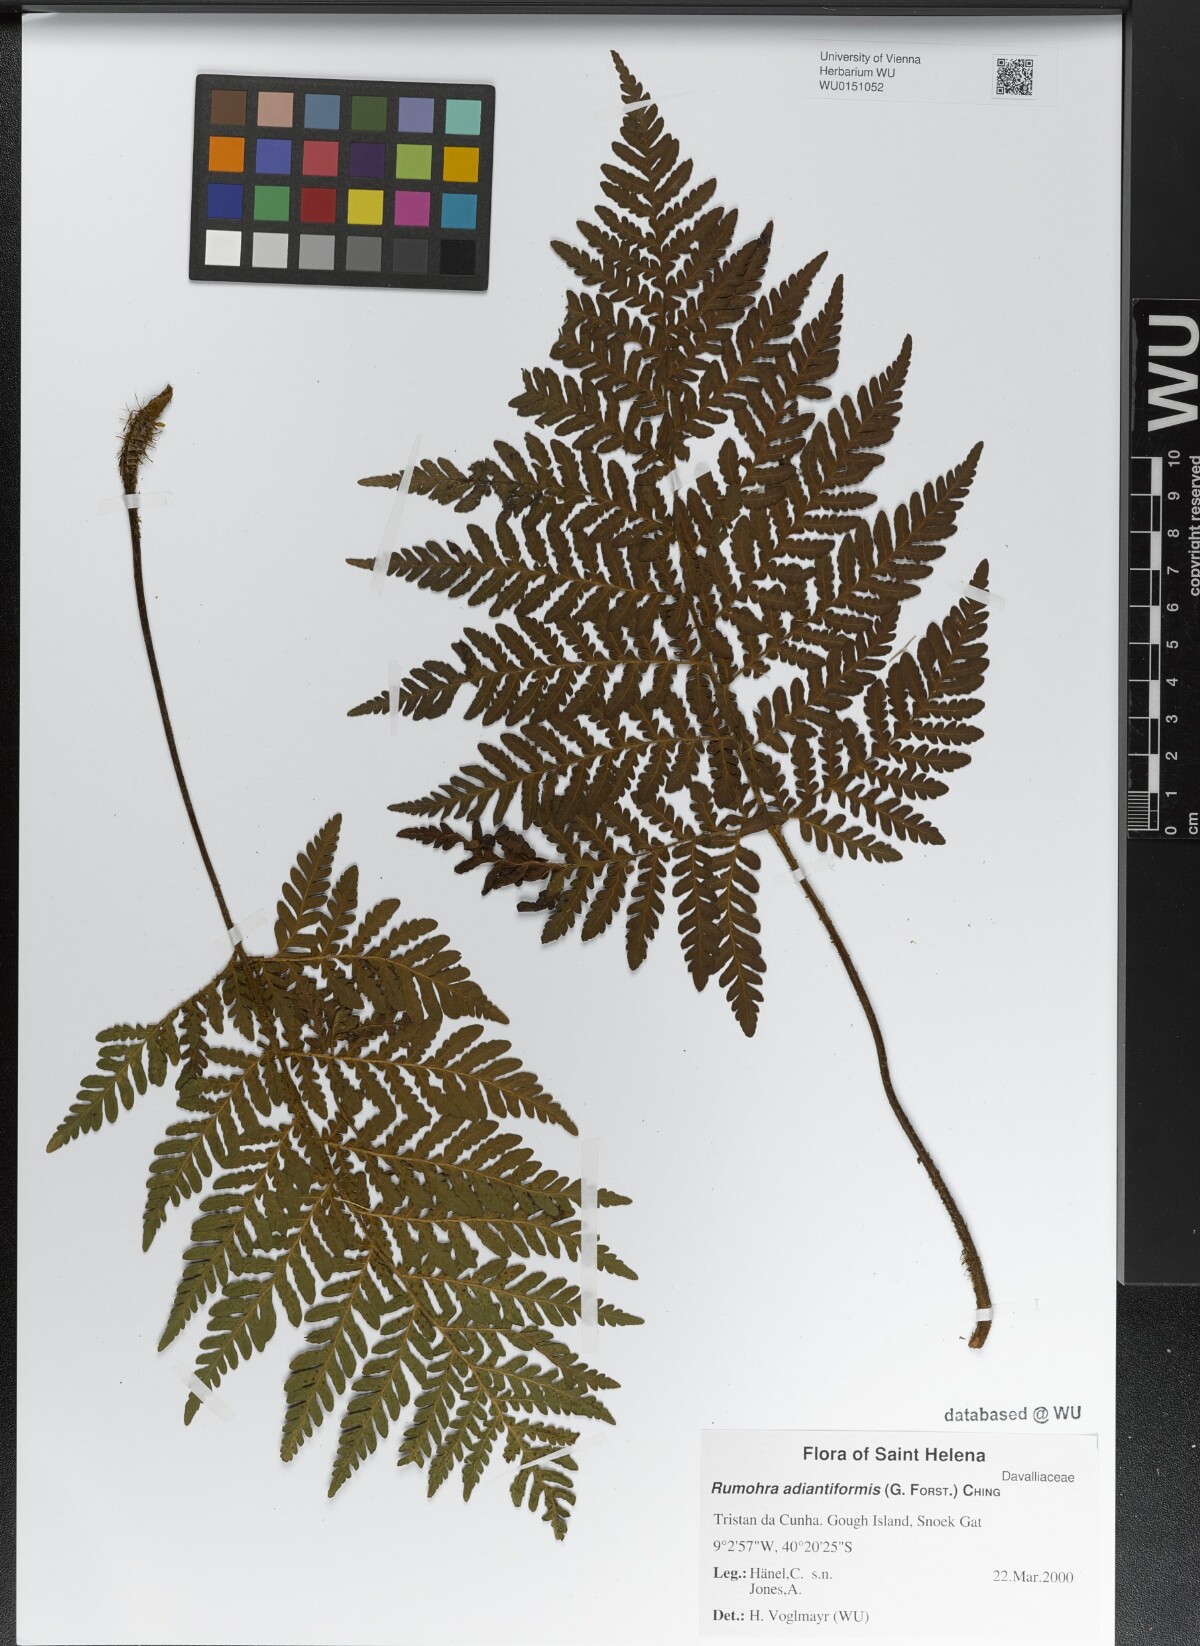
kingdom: Plantae
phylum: Tracheophyta
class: Polypodiopsida
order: Polypodiales
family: Dryopteridaceae
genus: Rumohra
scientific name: Rumohra adiantiformis
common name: Leather fern
